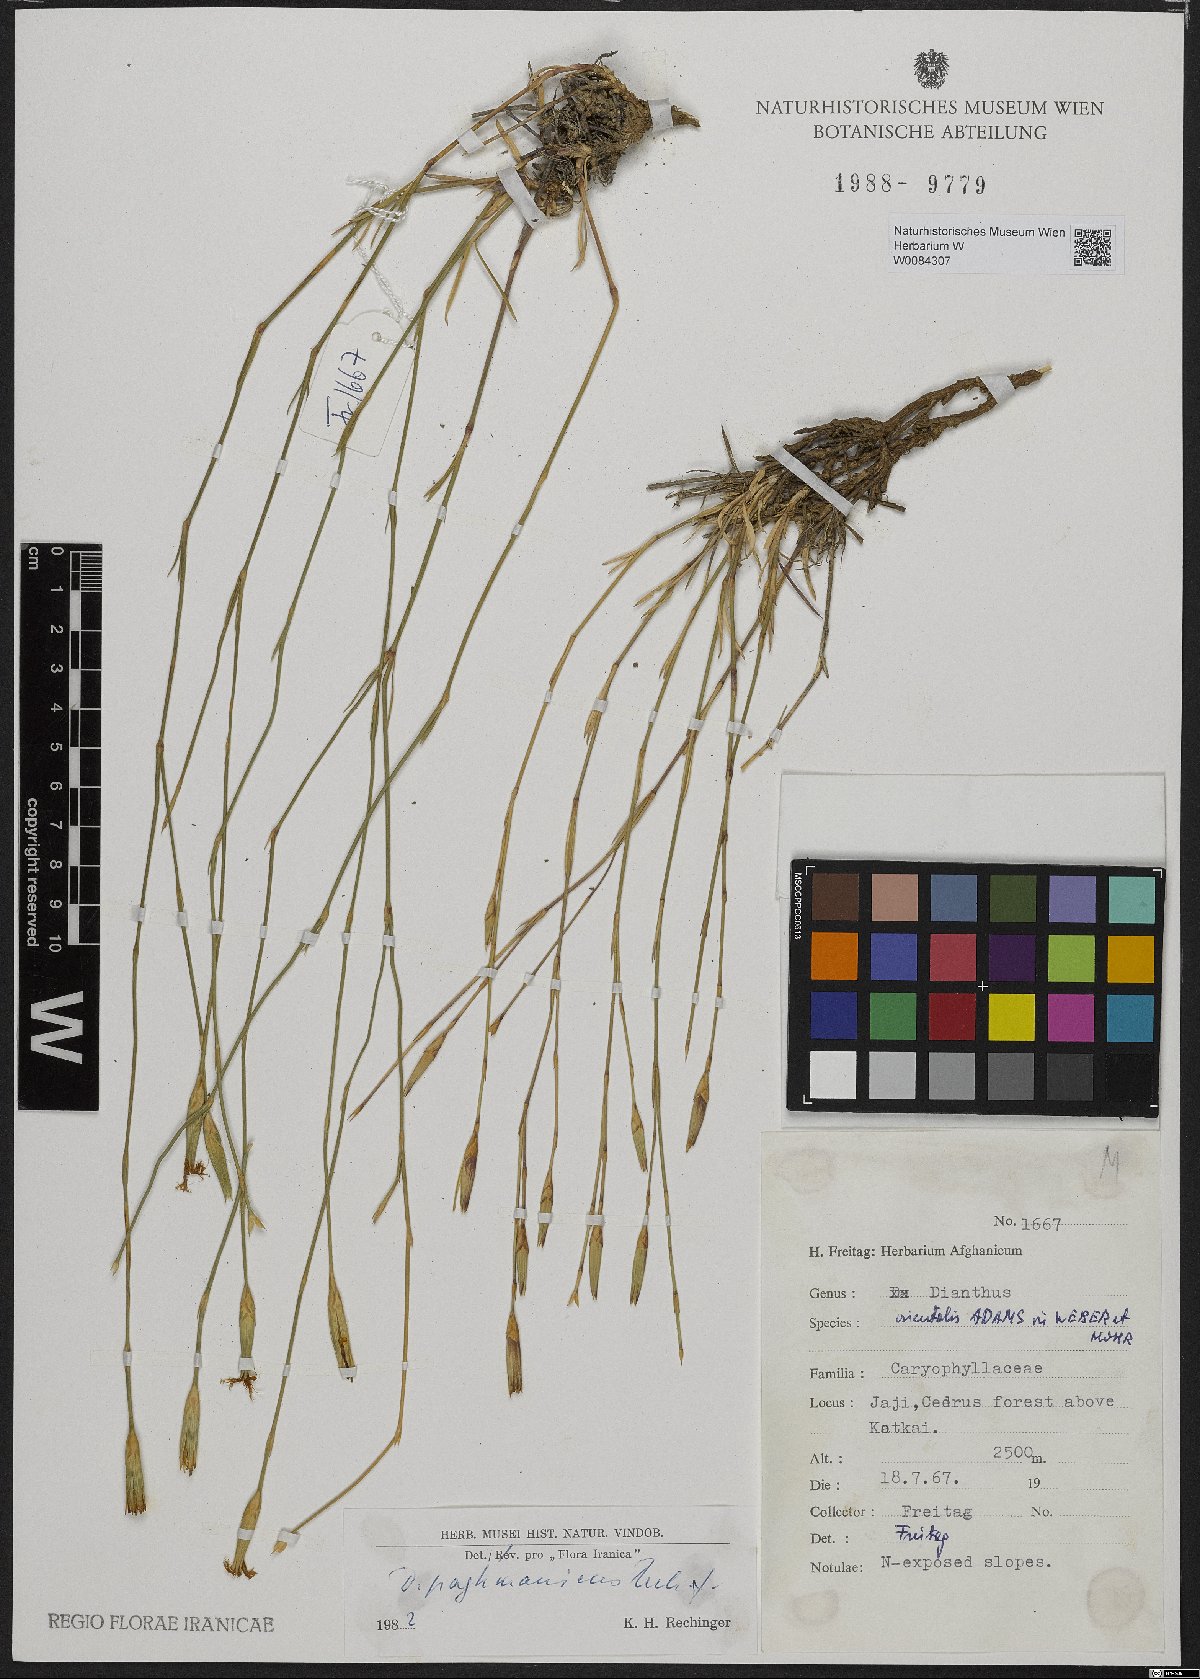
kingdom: Plantae
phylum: Tracheophyta
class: Magnoliopsida
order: Caryophyllales
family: Caryophyllaceae
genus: Dianthus
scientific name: Dianthus paghmanicus
